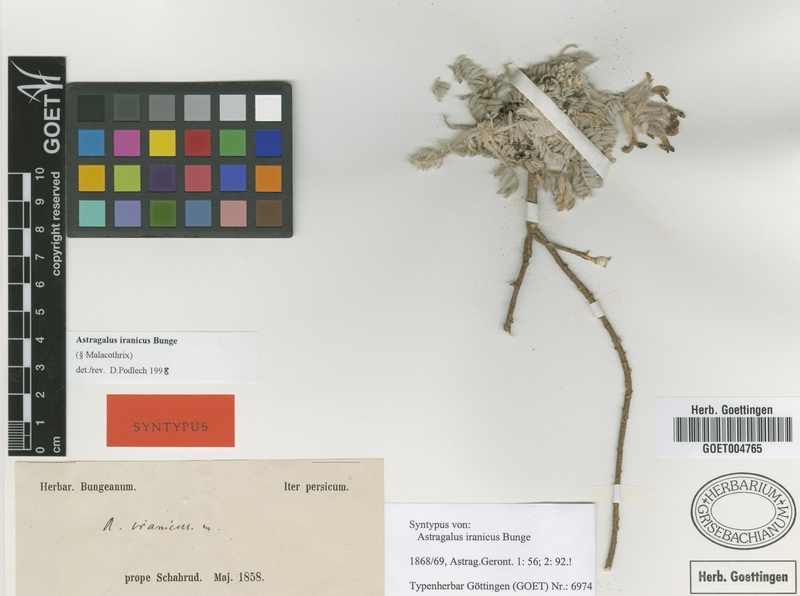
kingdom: Plantae
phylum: Tracheophyta
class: Magnoliopsida
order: Fabales
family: Fabaceae
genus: Astragalus
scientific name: Astragalus iranicus
